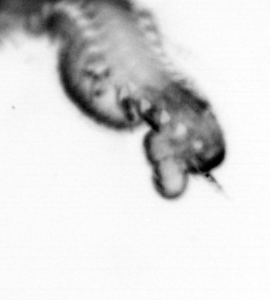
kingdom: Animalia
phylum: Annelida
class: Polychaeta
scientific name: Polychaeta
